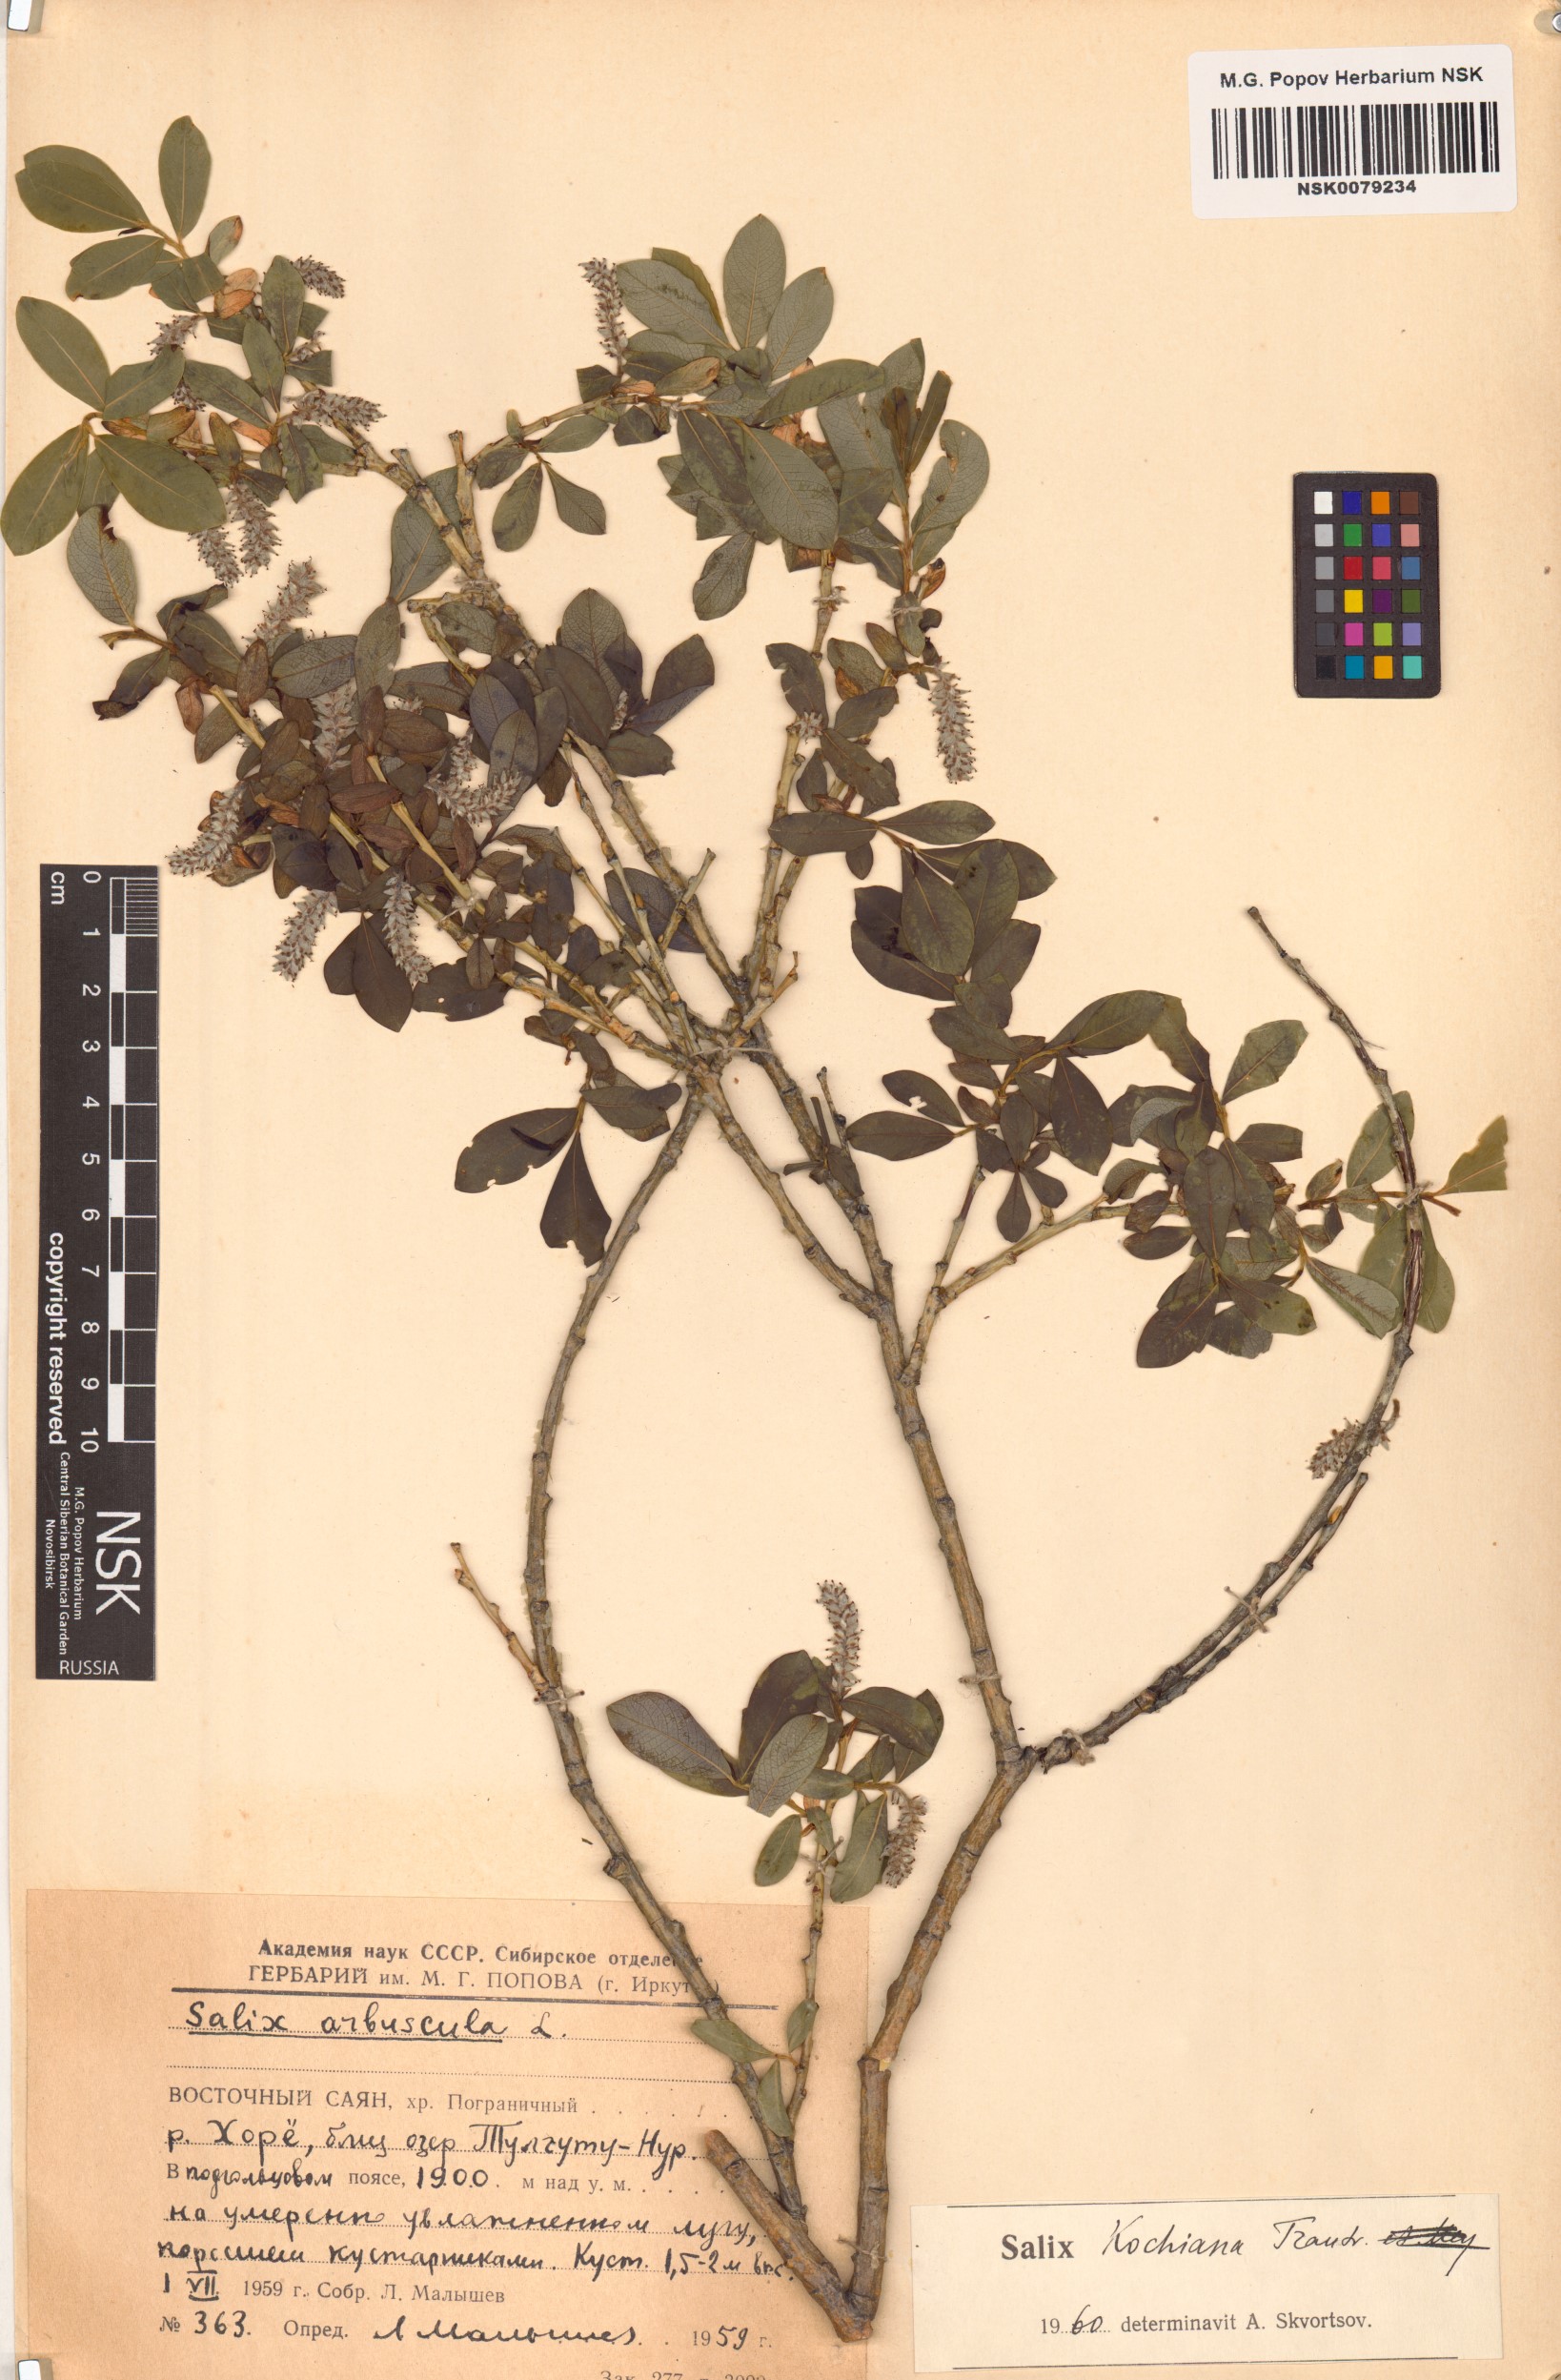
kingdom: Plantae
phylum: Tracheophyta
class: Magnoliopsida
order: Malpighiales
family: Salicaceae
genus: Salix
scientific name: Salix kochiana
